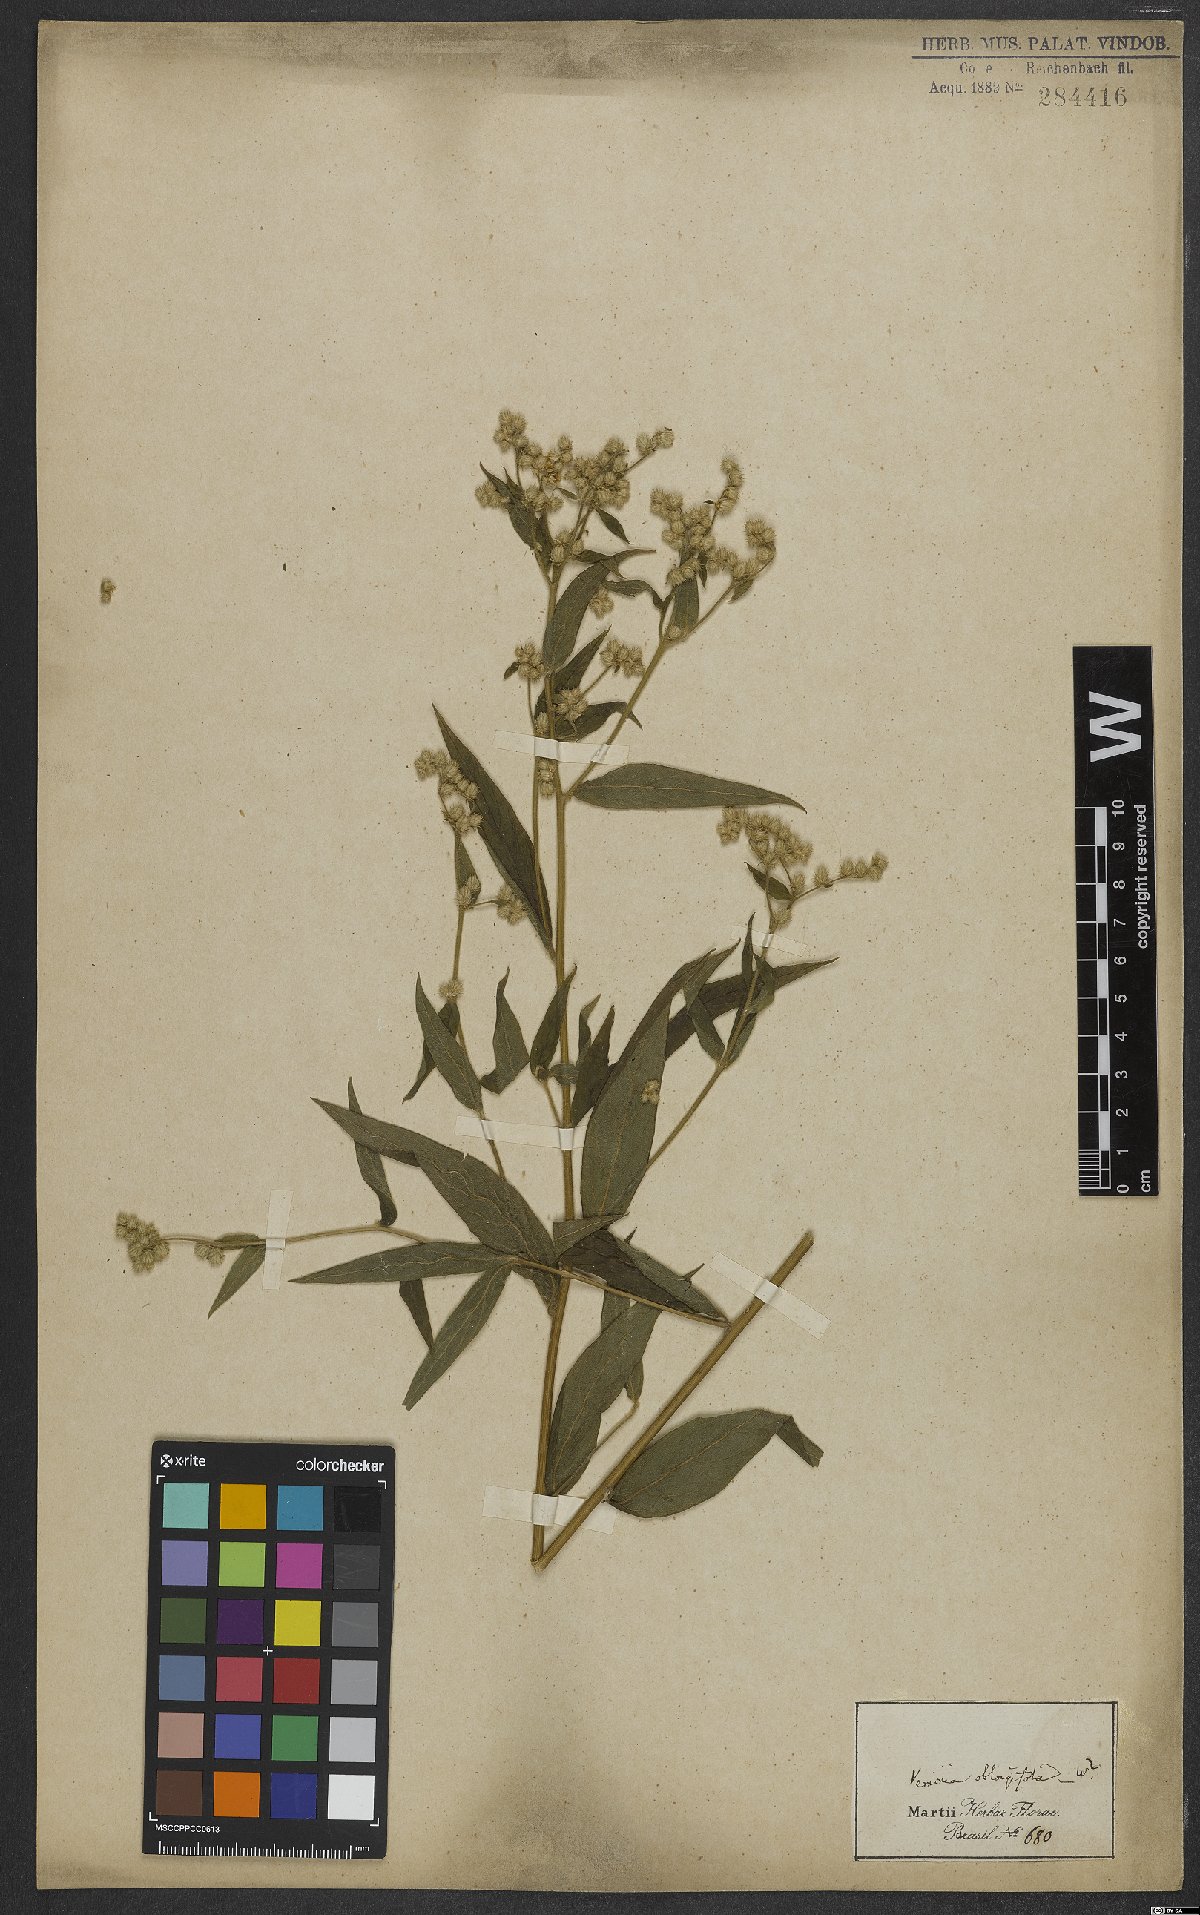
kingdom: Plantae
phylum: Tracheophyta
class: Magnoliopsida
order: Asterales
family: Asteraceae
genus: Lepidaploa
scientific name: Lepidaploa subsquarrosa
